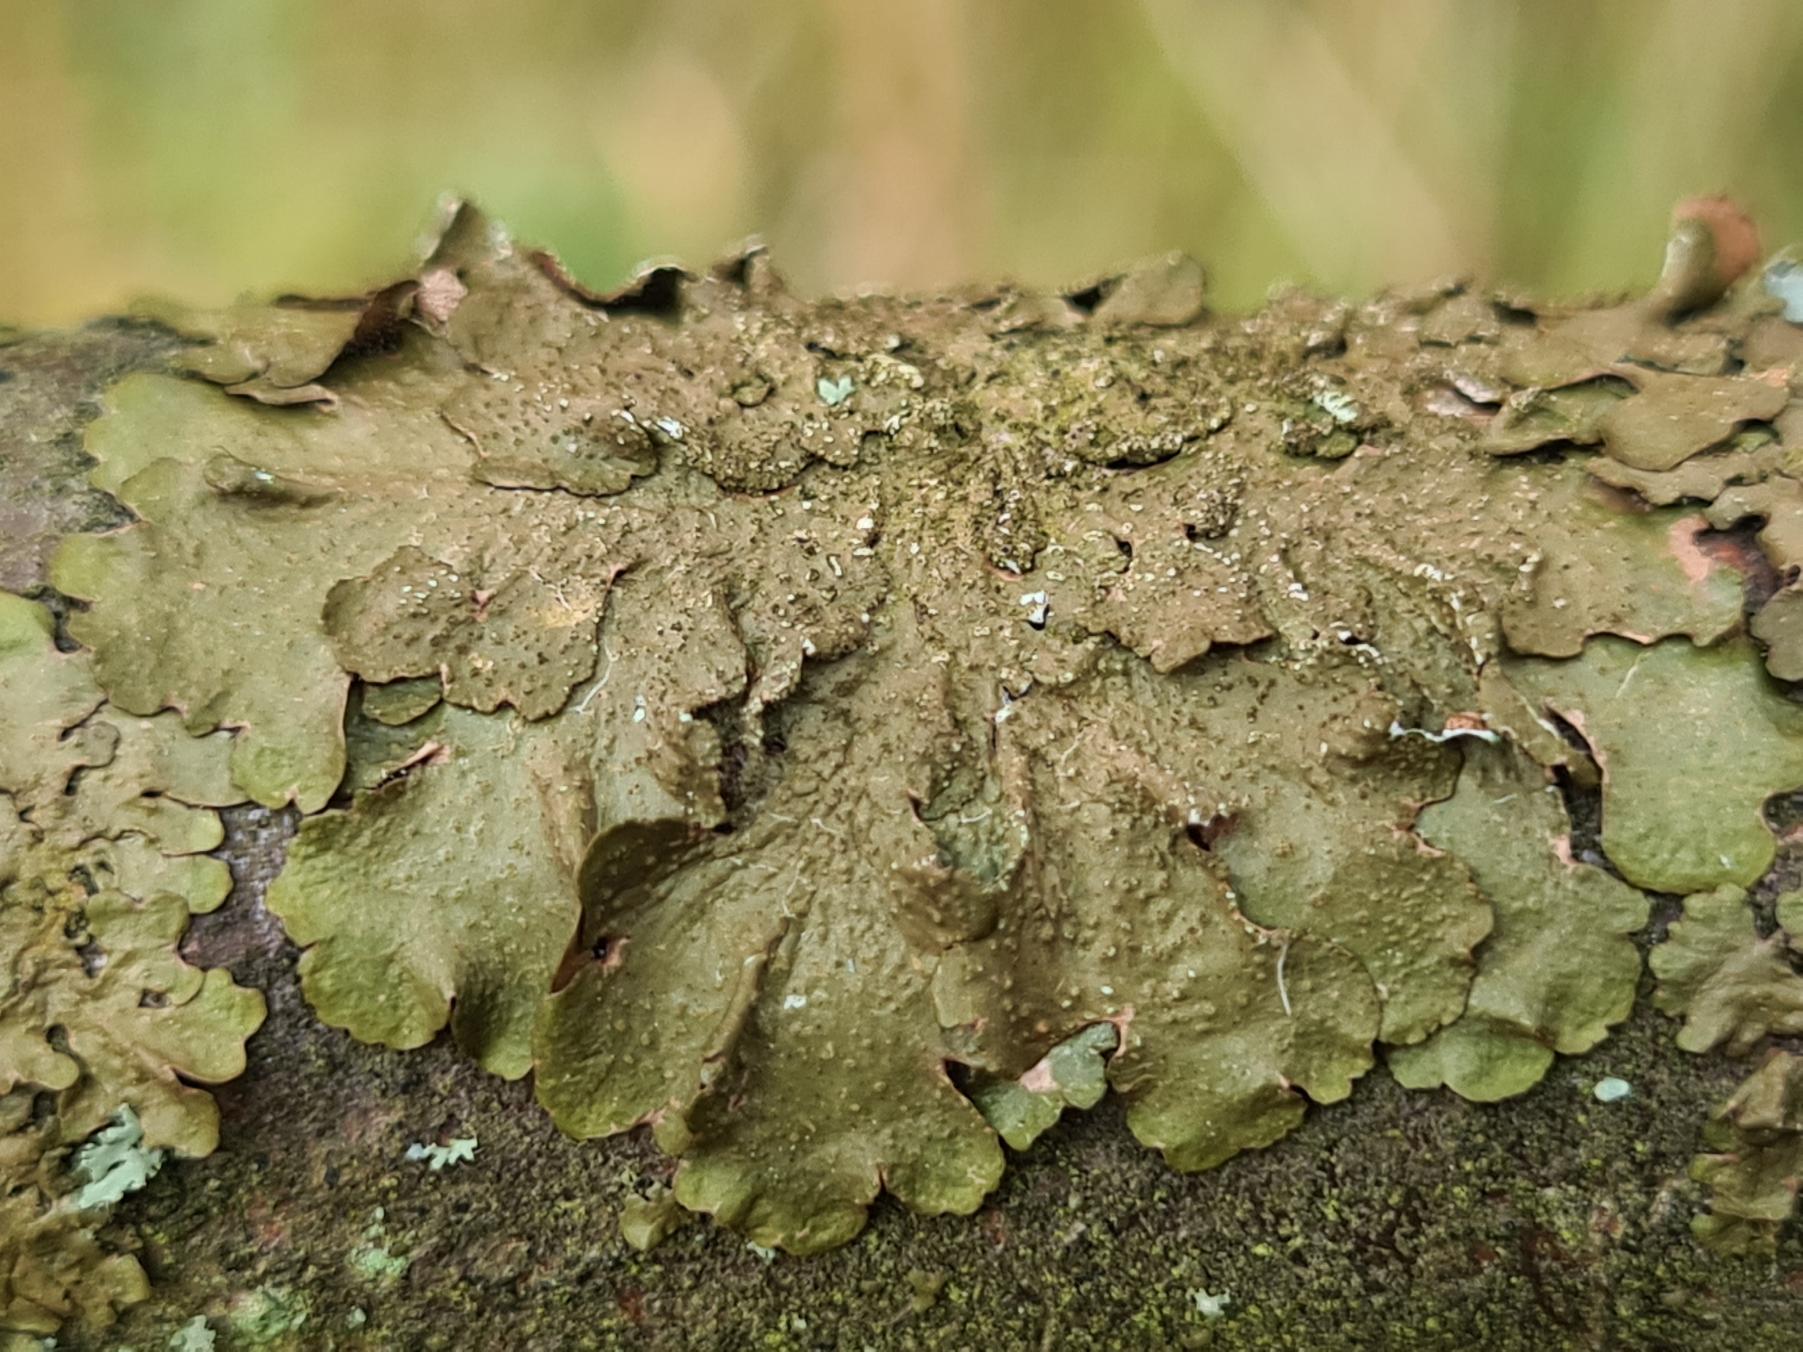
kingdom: Fungi
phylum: Ascomycota
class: Lecanoromycetes
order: Lecanorales
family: Parmeliaceae
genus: Melanelixia
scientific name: Melanelixia subaurifera
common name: Guldpudret skållav
